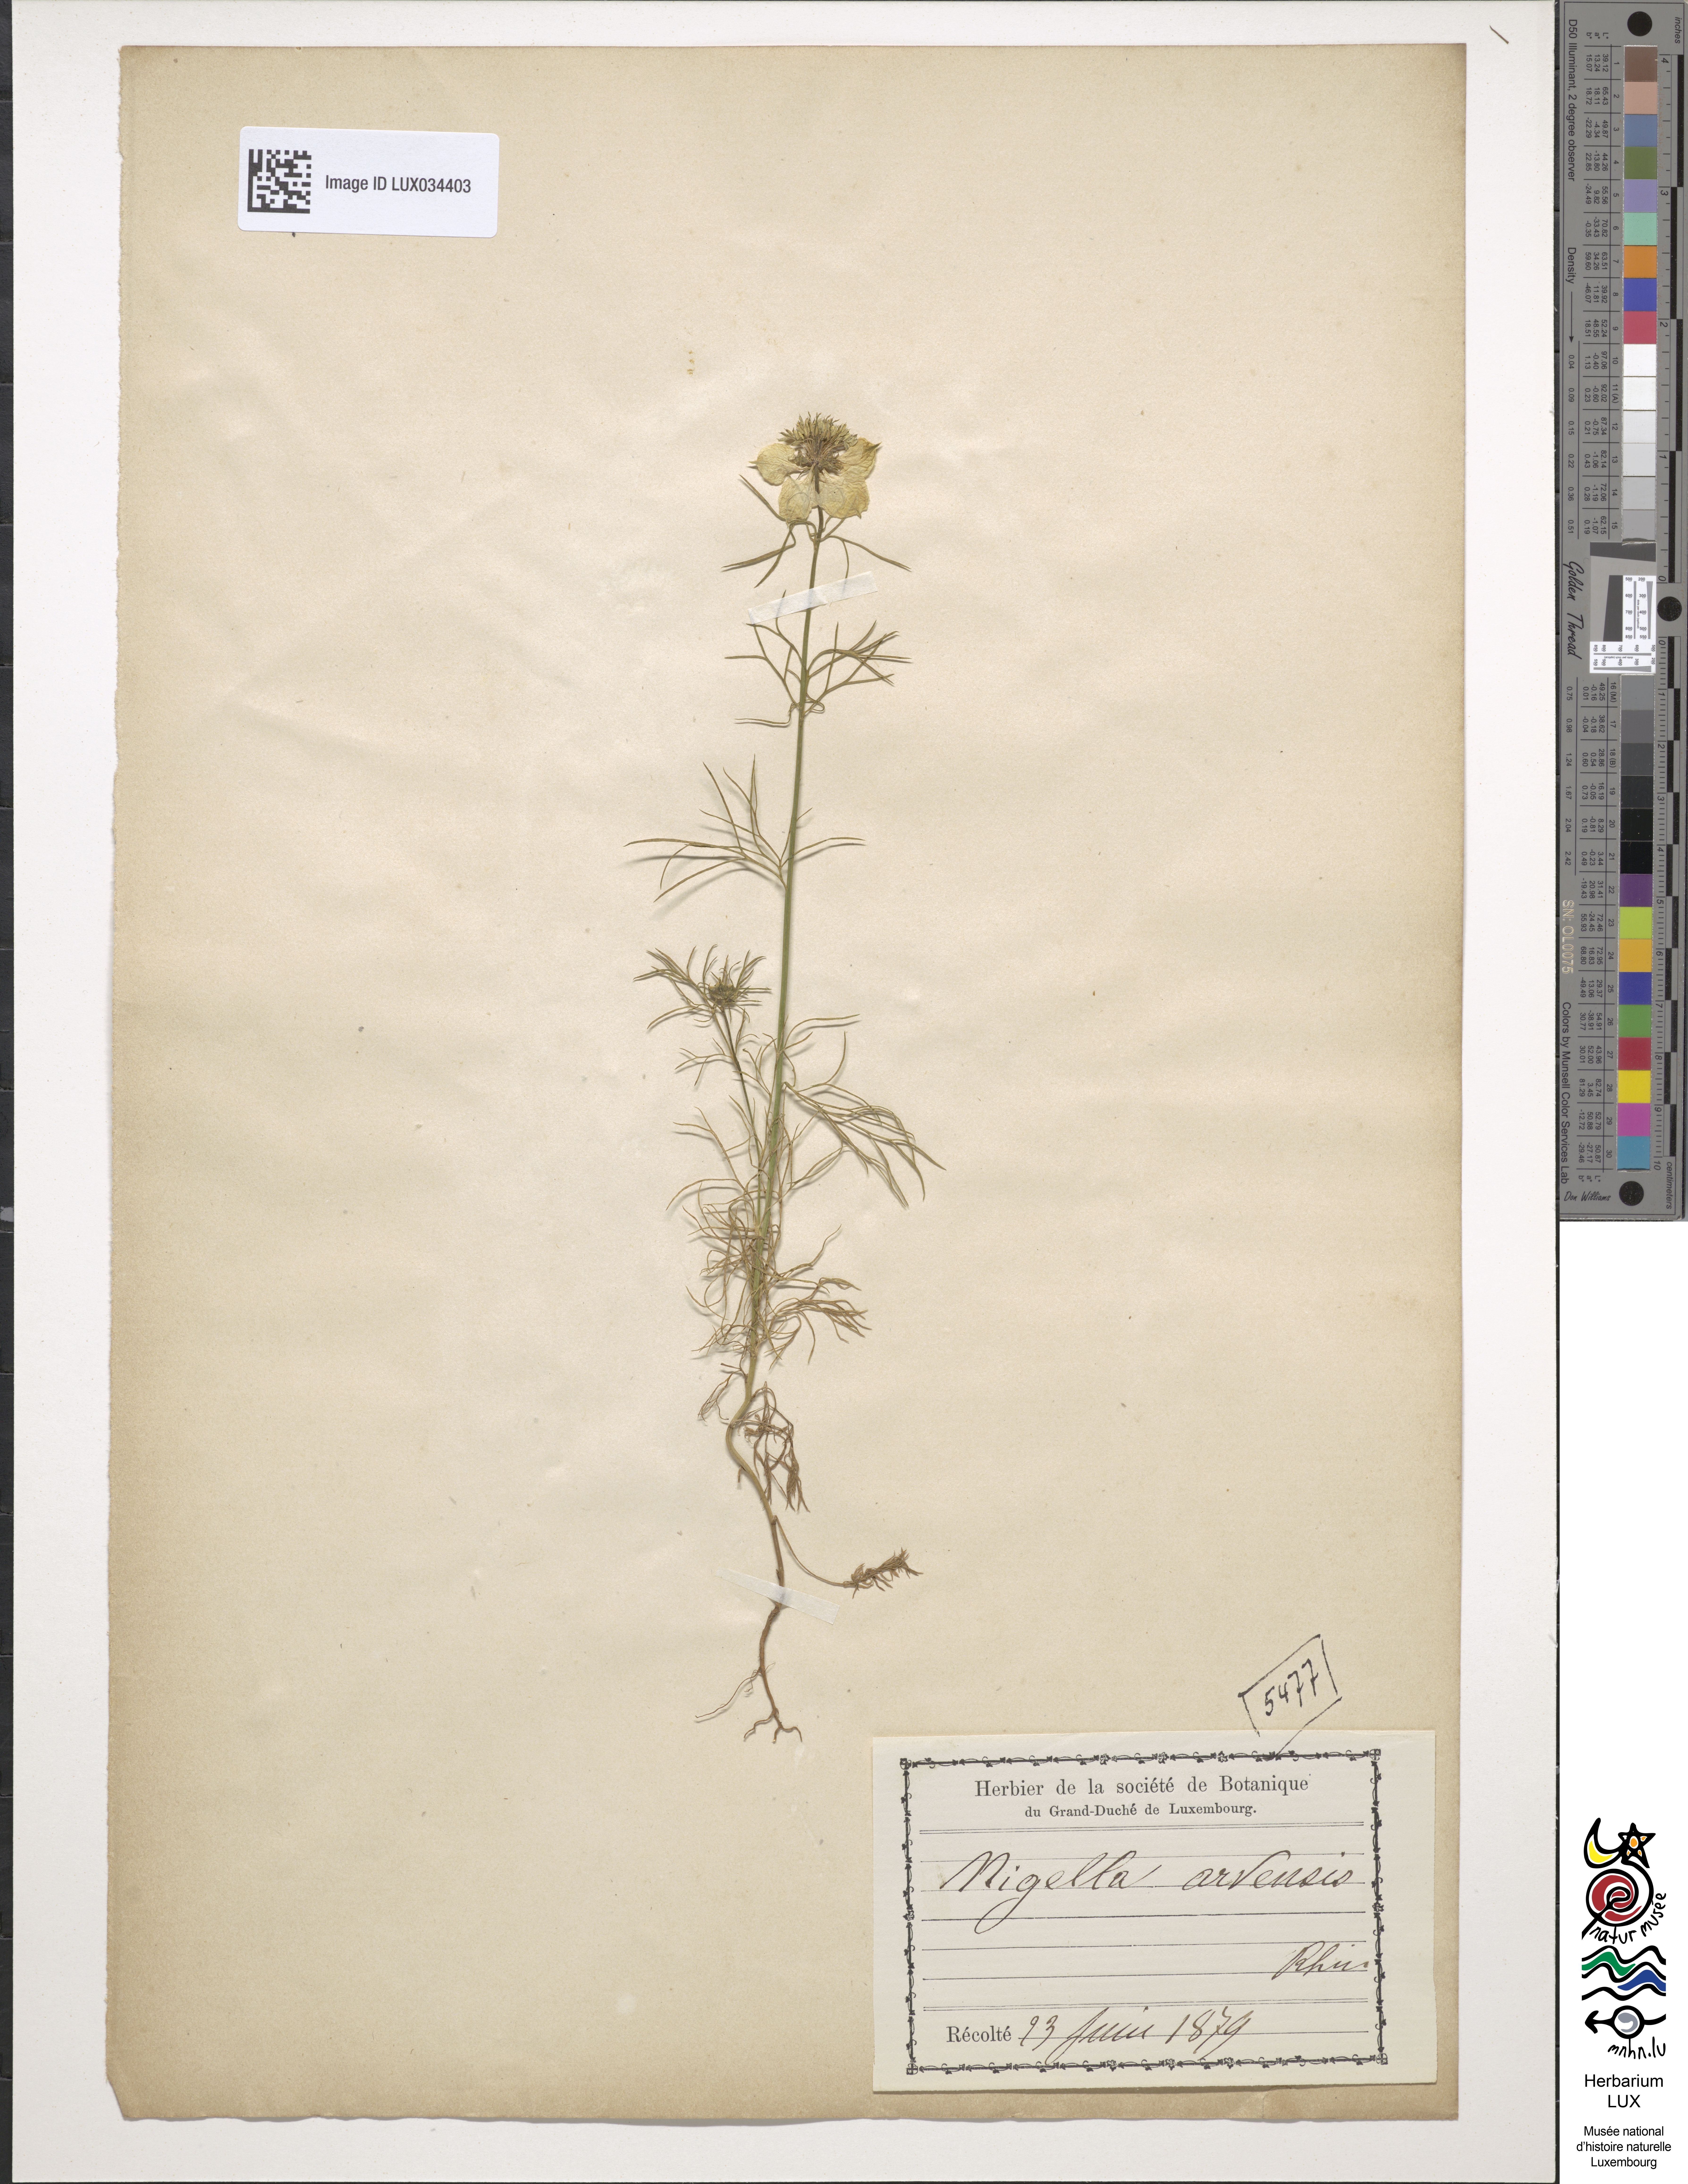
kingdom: Plantae
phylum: Tracheophyta
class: Magnoliopsida
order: Ranunculales
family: Ranunculaceae
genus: Nigella
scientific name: Nigella arvensis
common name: Wild fennel-flower
